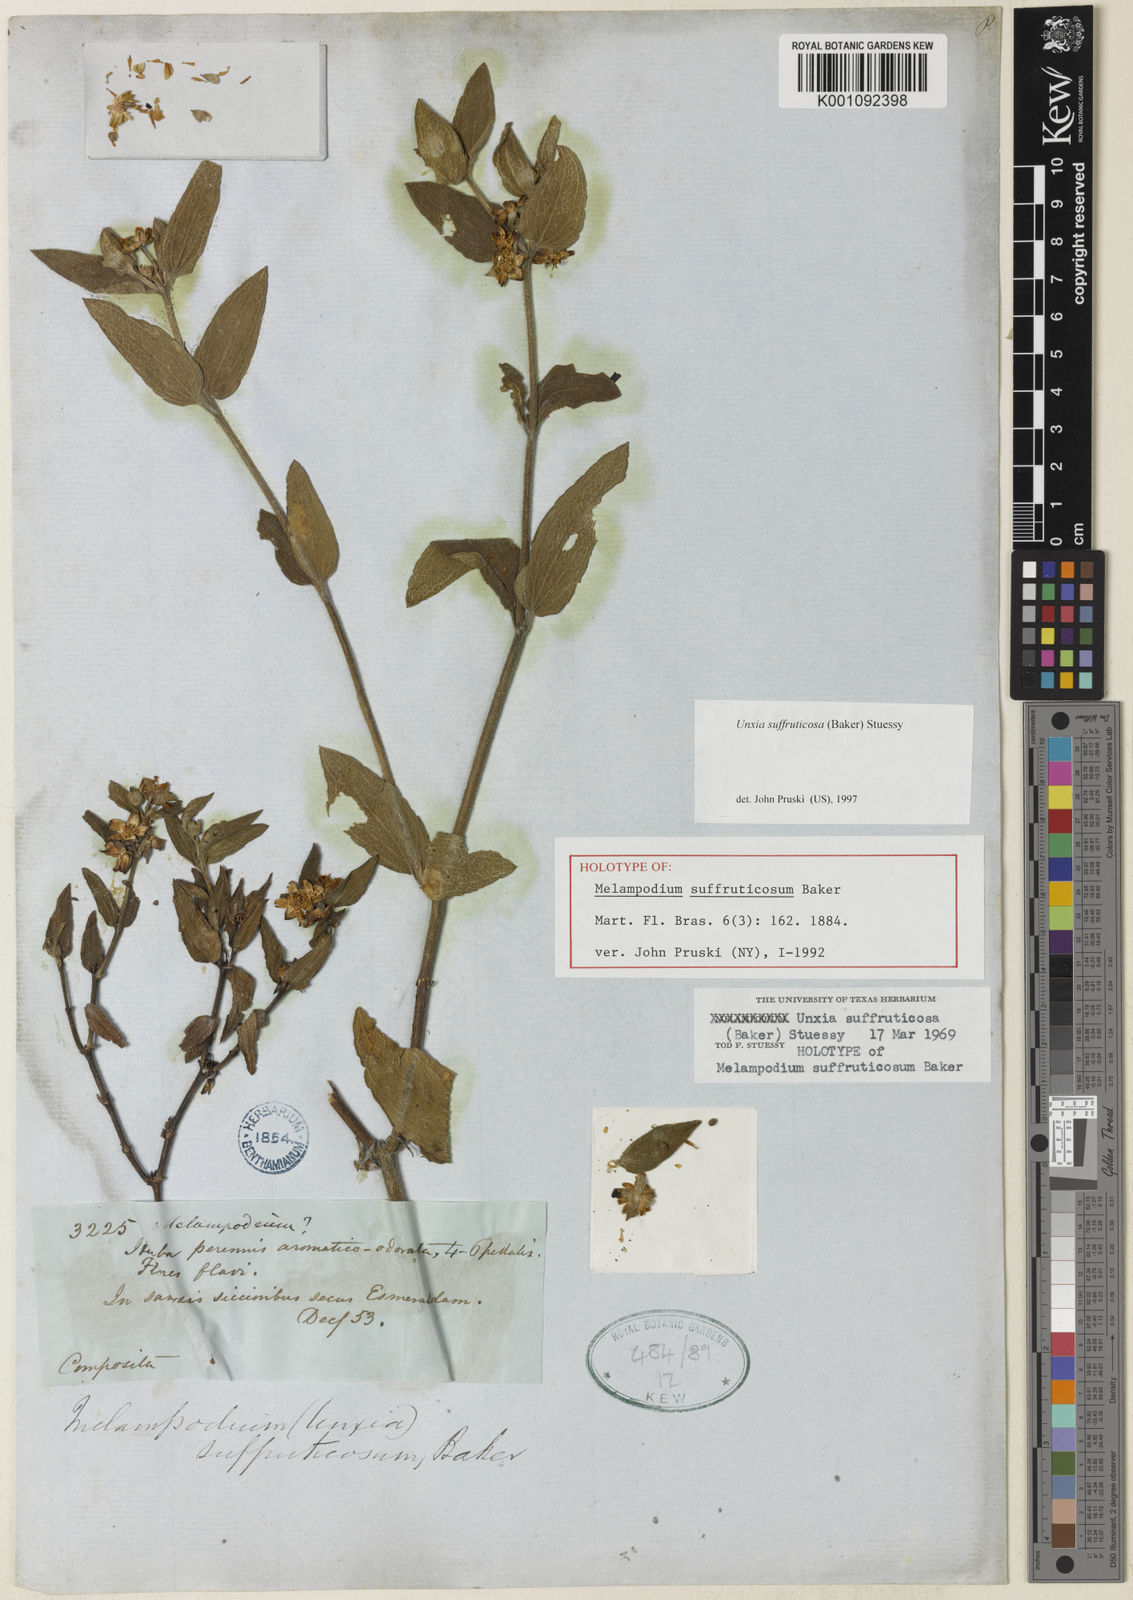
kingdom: Plantae
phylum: Tracheophyta
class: Magnoliopsida
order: Asterales
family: Asteraceae
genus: Unxia
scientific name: Unxia suffruticosa
